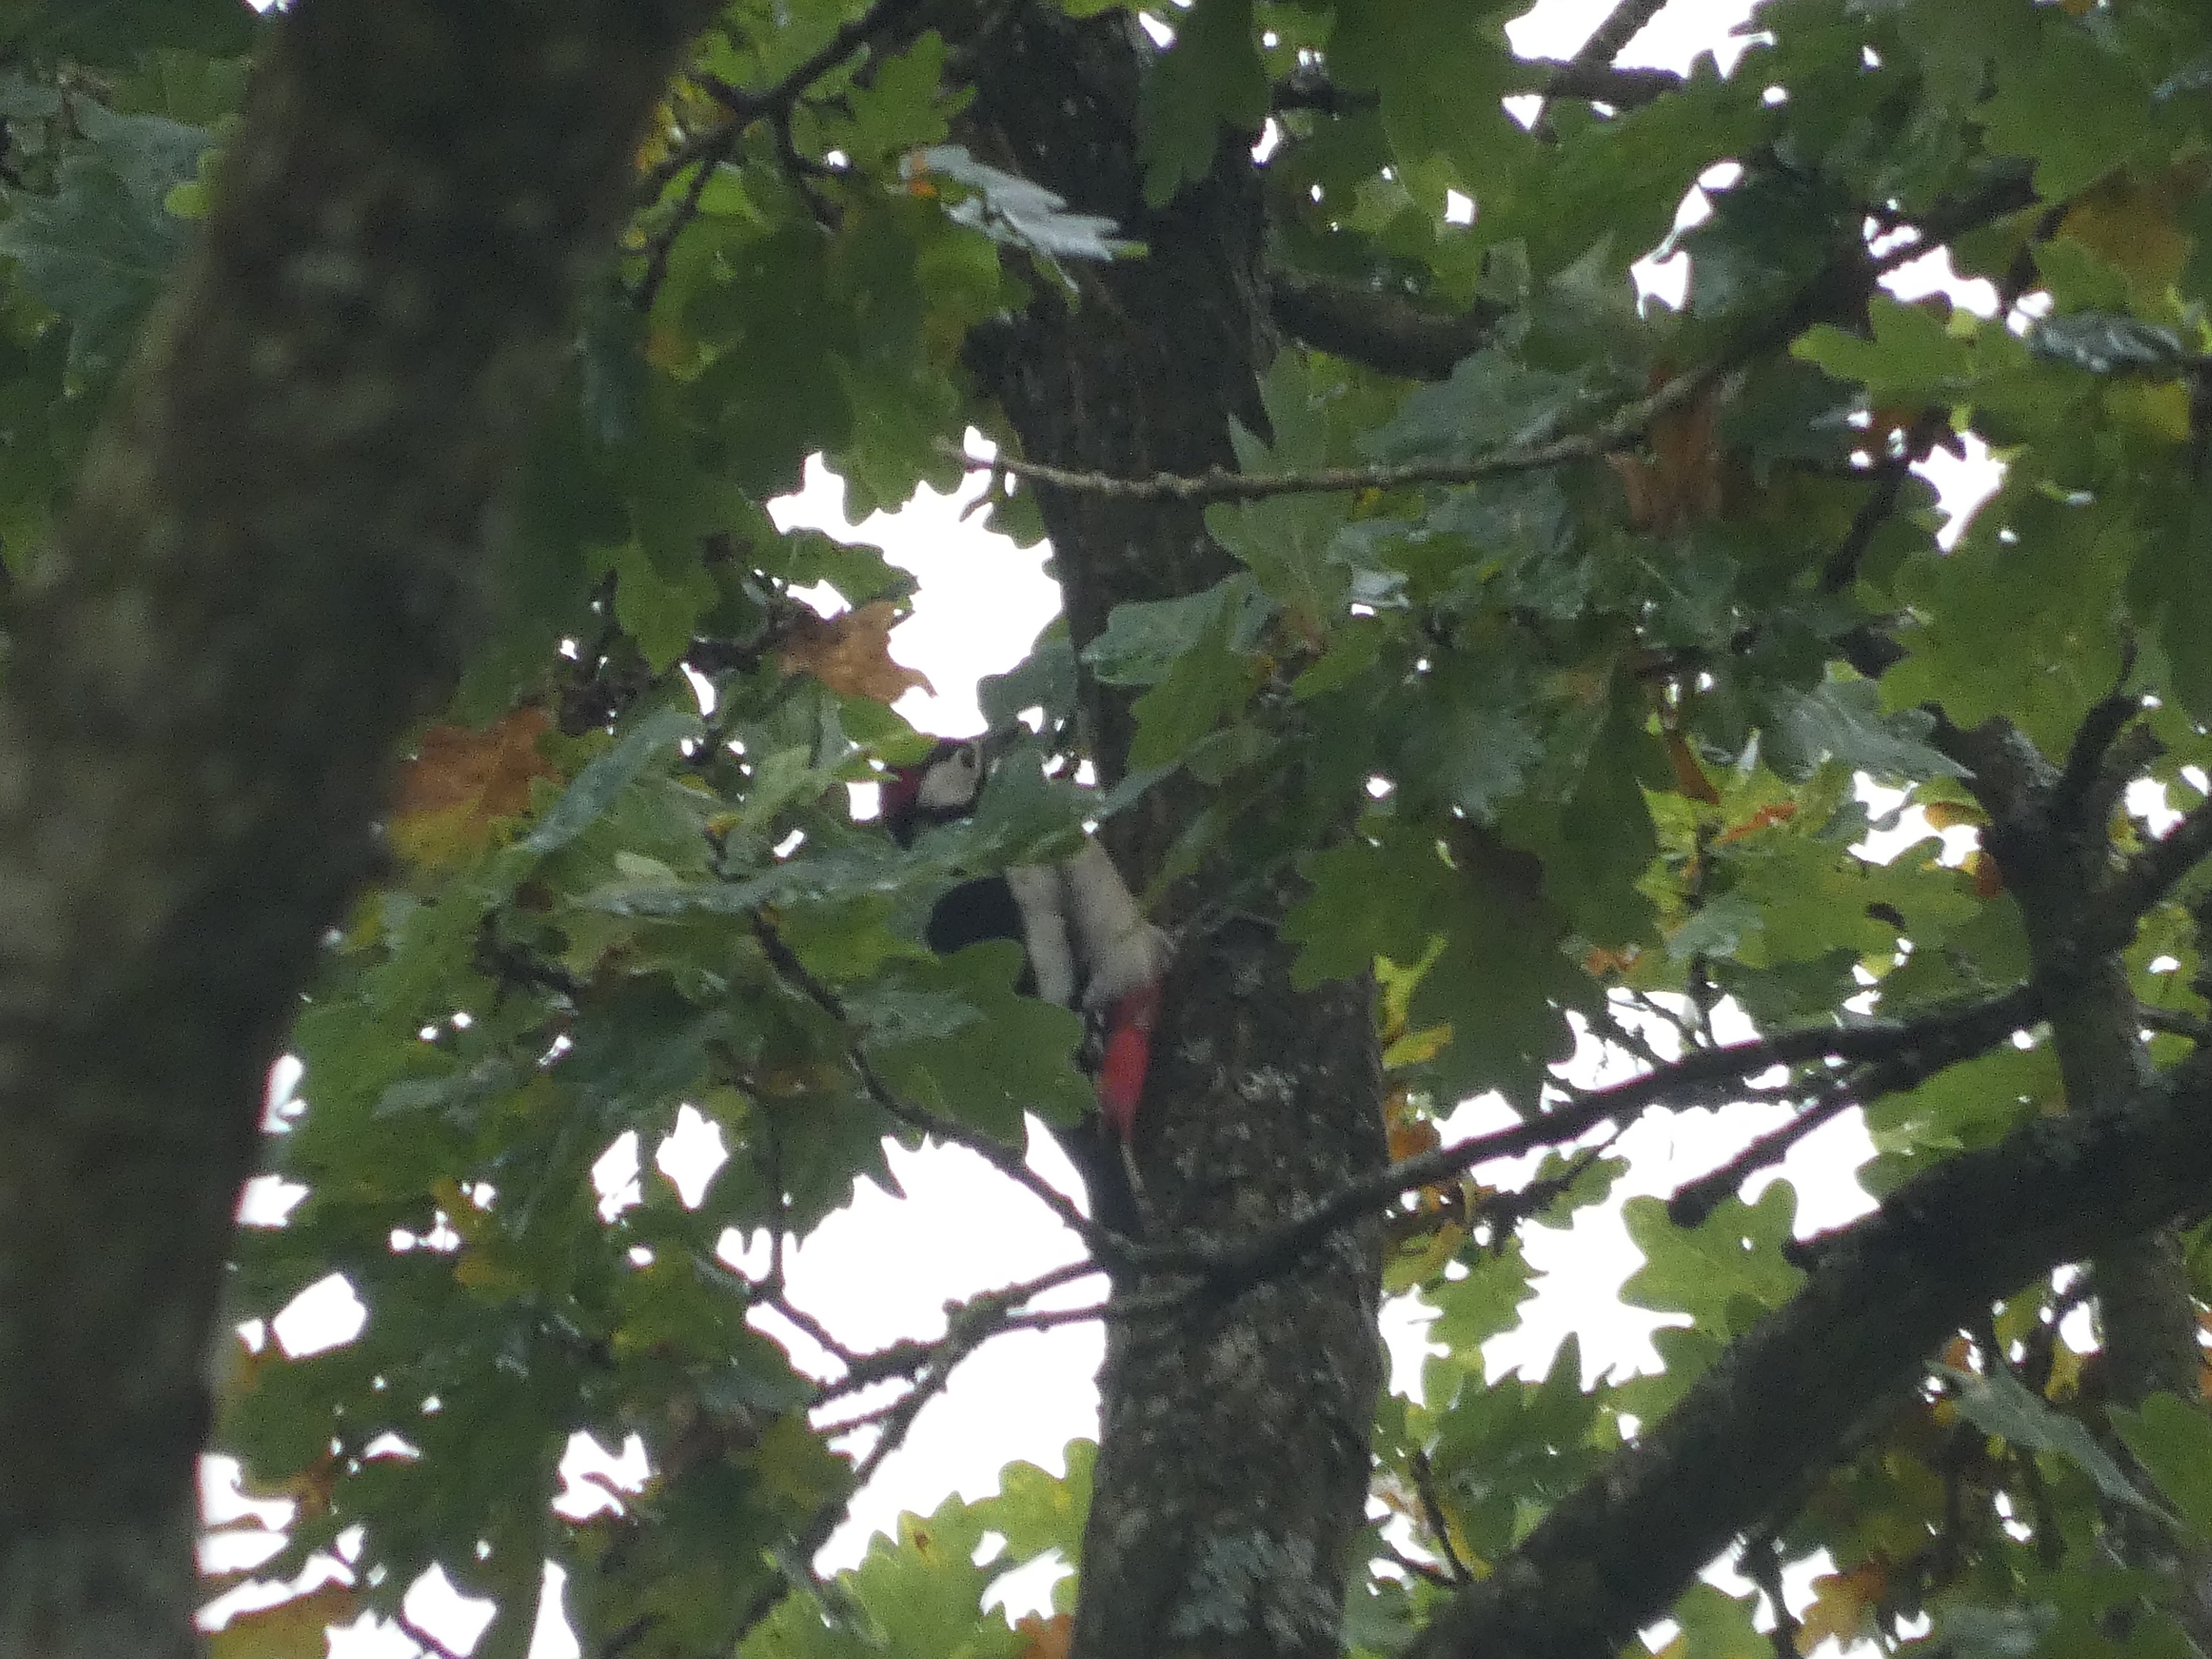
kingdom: Animalia
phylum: Chordata
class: Aves
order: Piciformes
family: Picidae
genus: Dendrocopos
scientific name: Dendrocopos major
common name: Stor flagspætte
